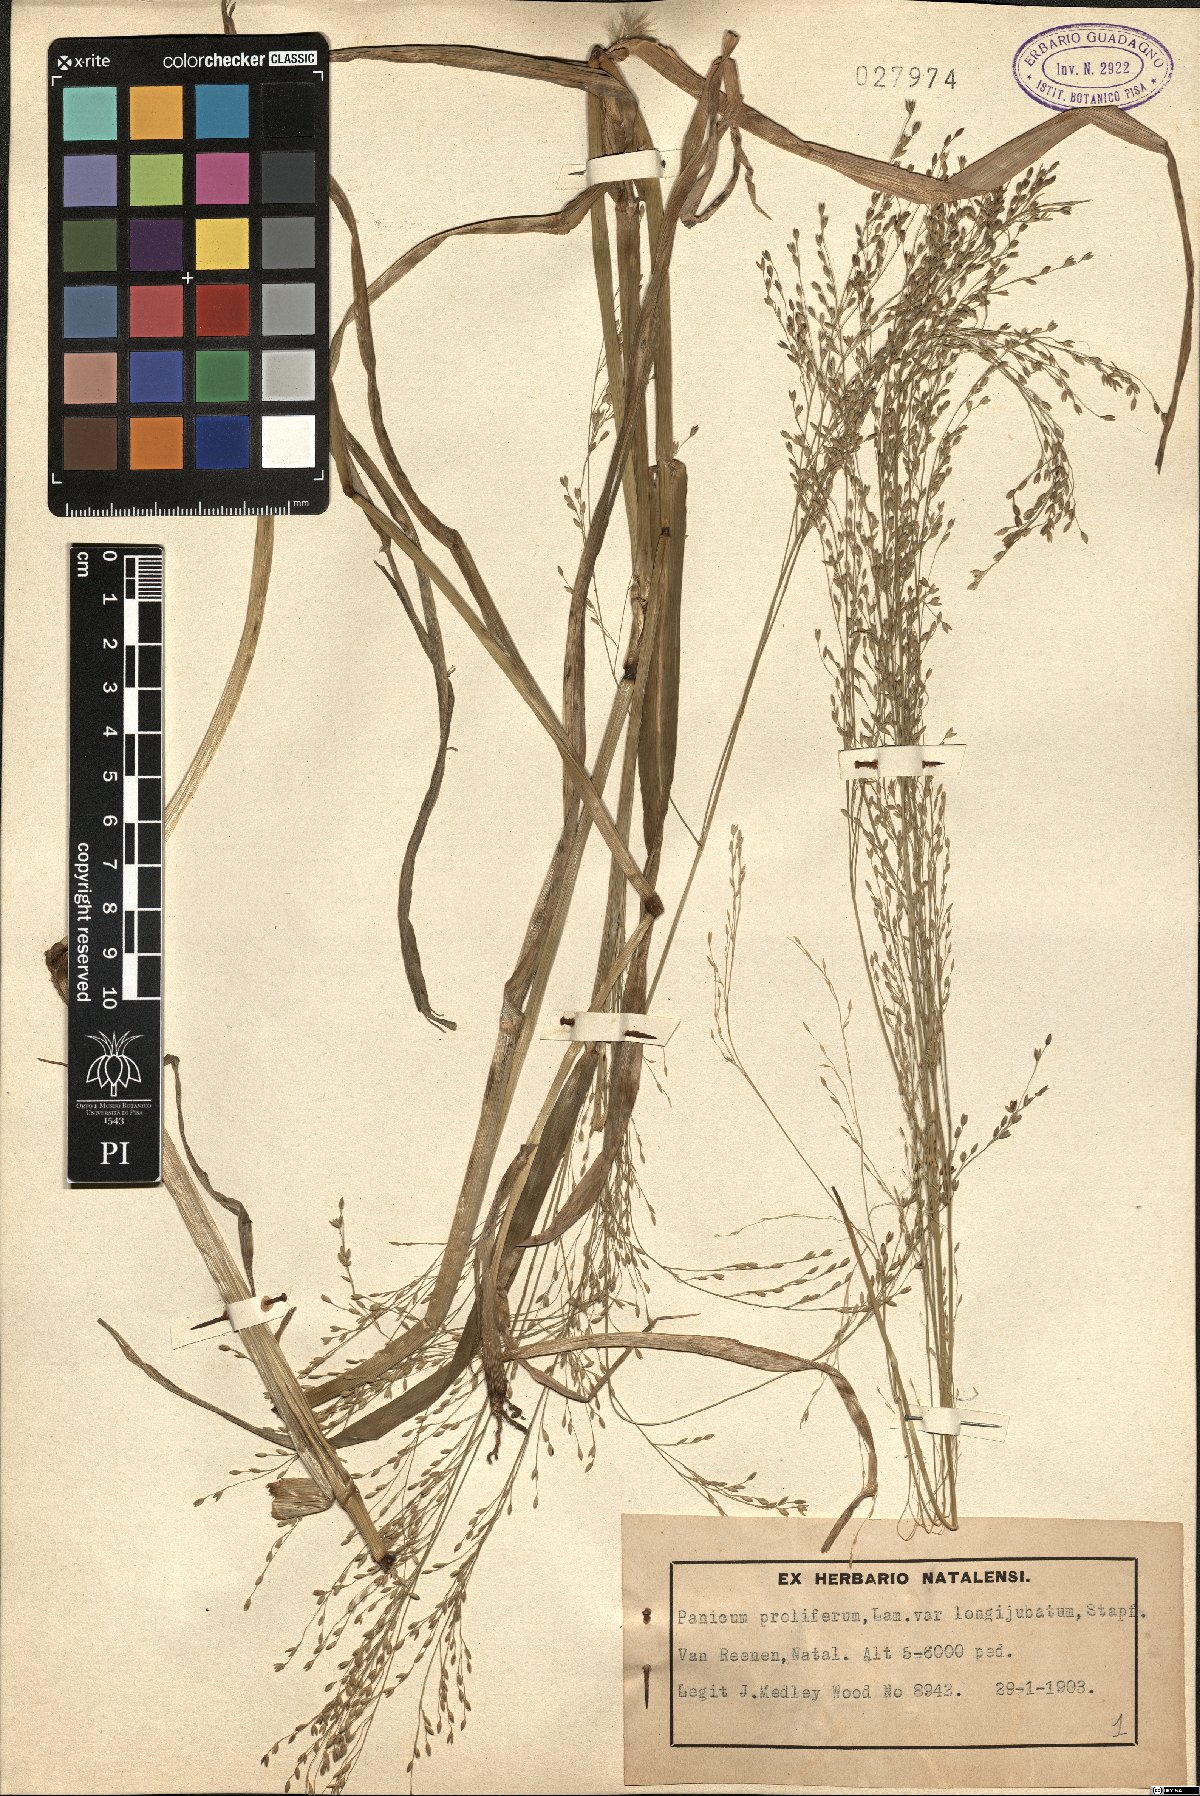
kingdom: Plantae
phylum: Tracheophyta
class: Liliopsida
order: Poales
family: Poaceae
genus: Panicum
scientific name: Panicum subalbidum
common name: Elbow buffalo grass
